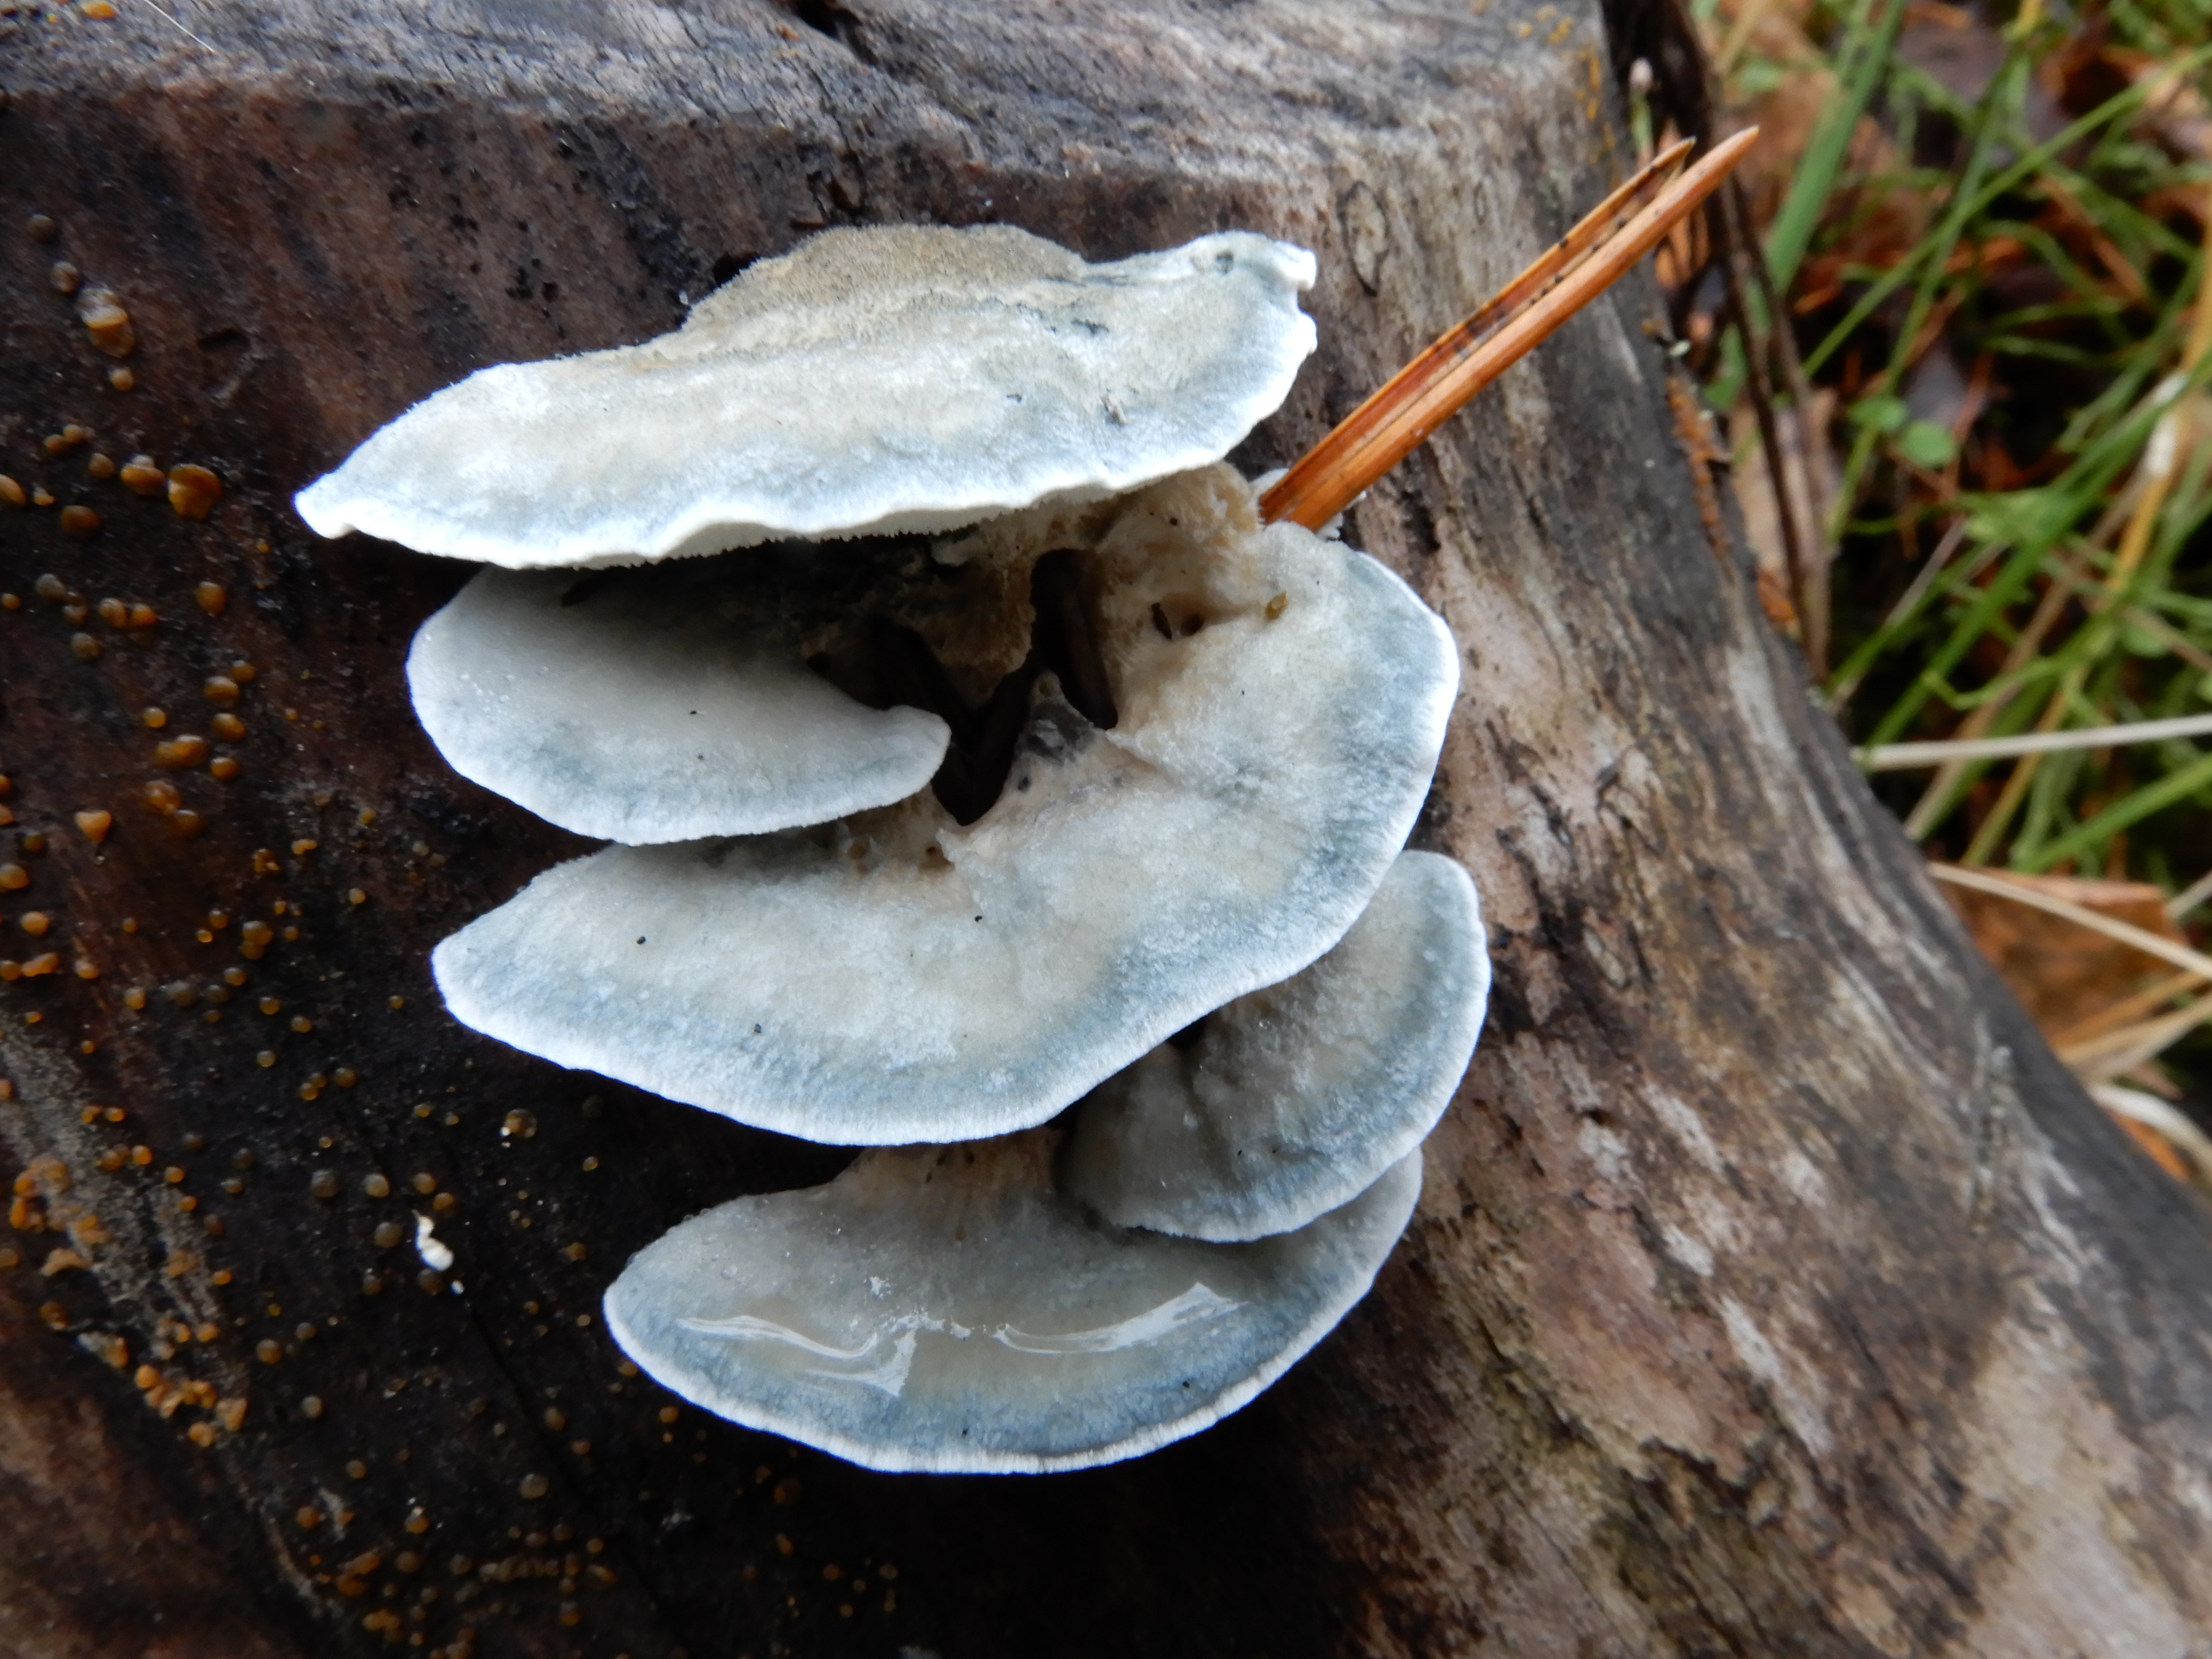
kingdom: Fungi
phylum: Basidiomycota
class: Agaricomycetes
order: Polyporales
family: Polyporaceae
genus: Cyanosporus
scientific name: Cyanosporus caesius
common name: Blue cheese polypore
